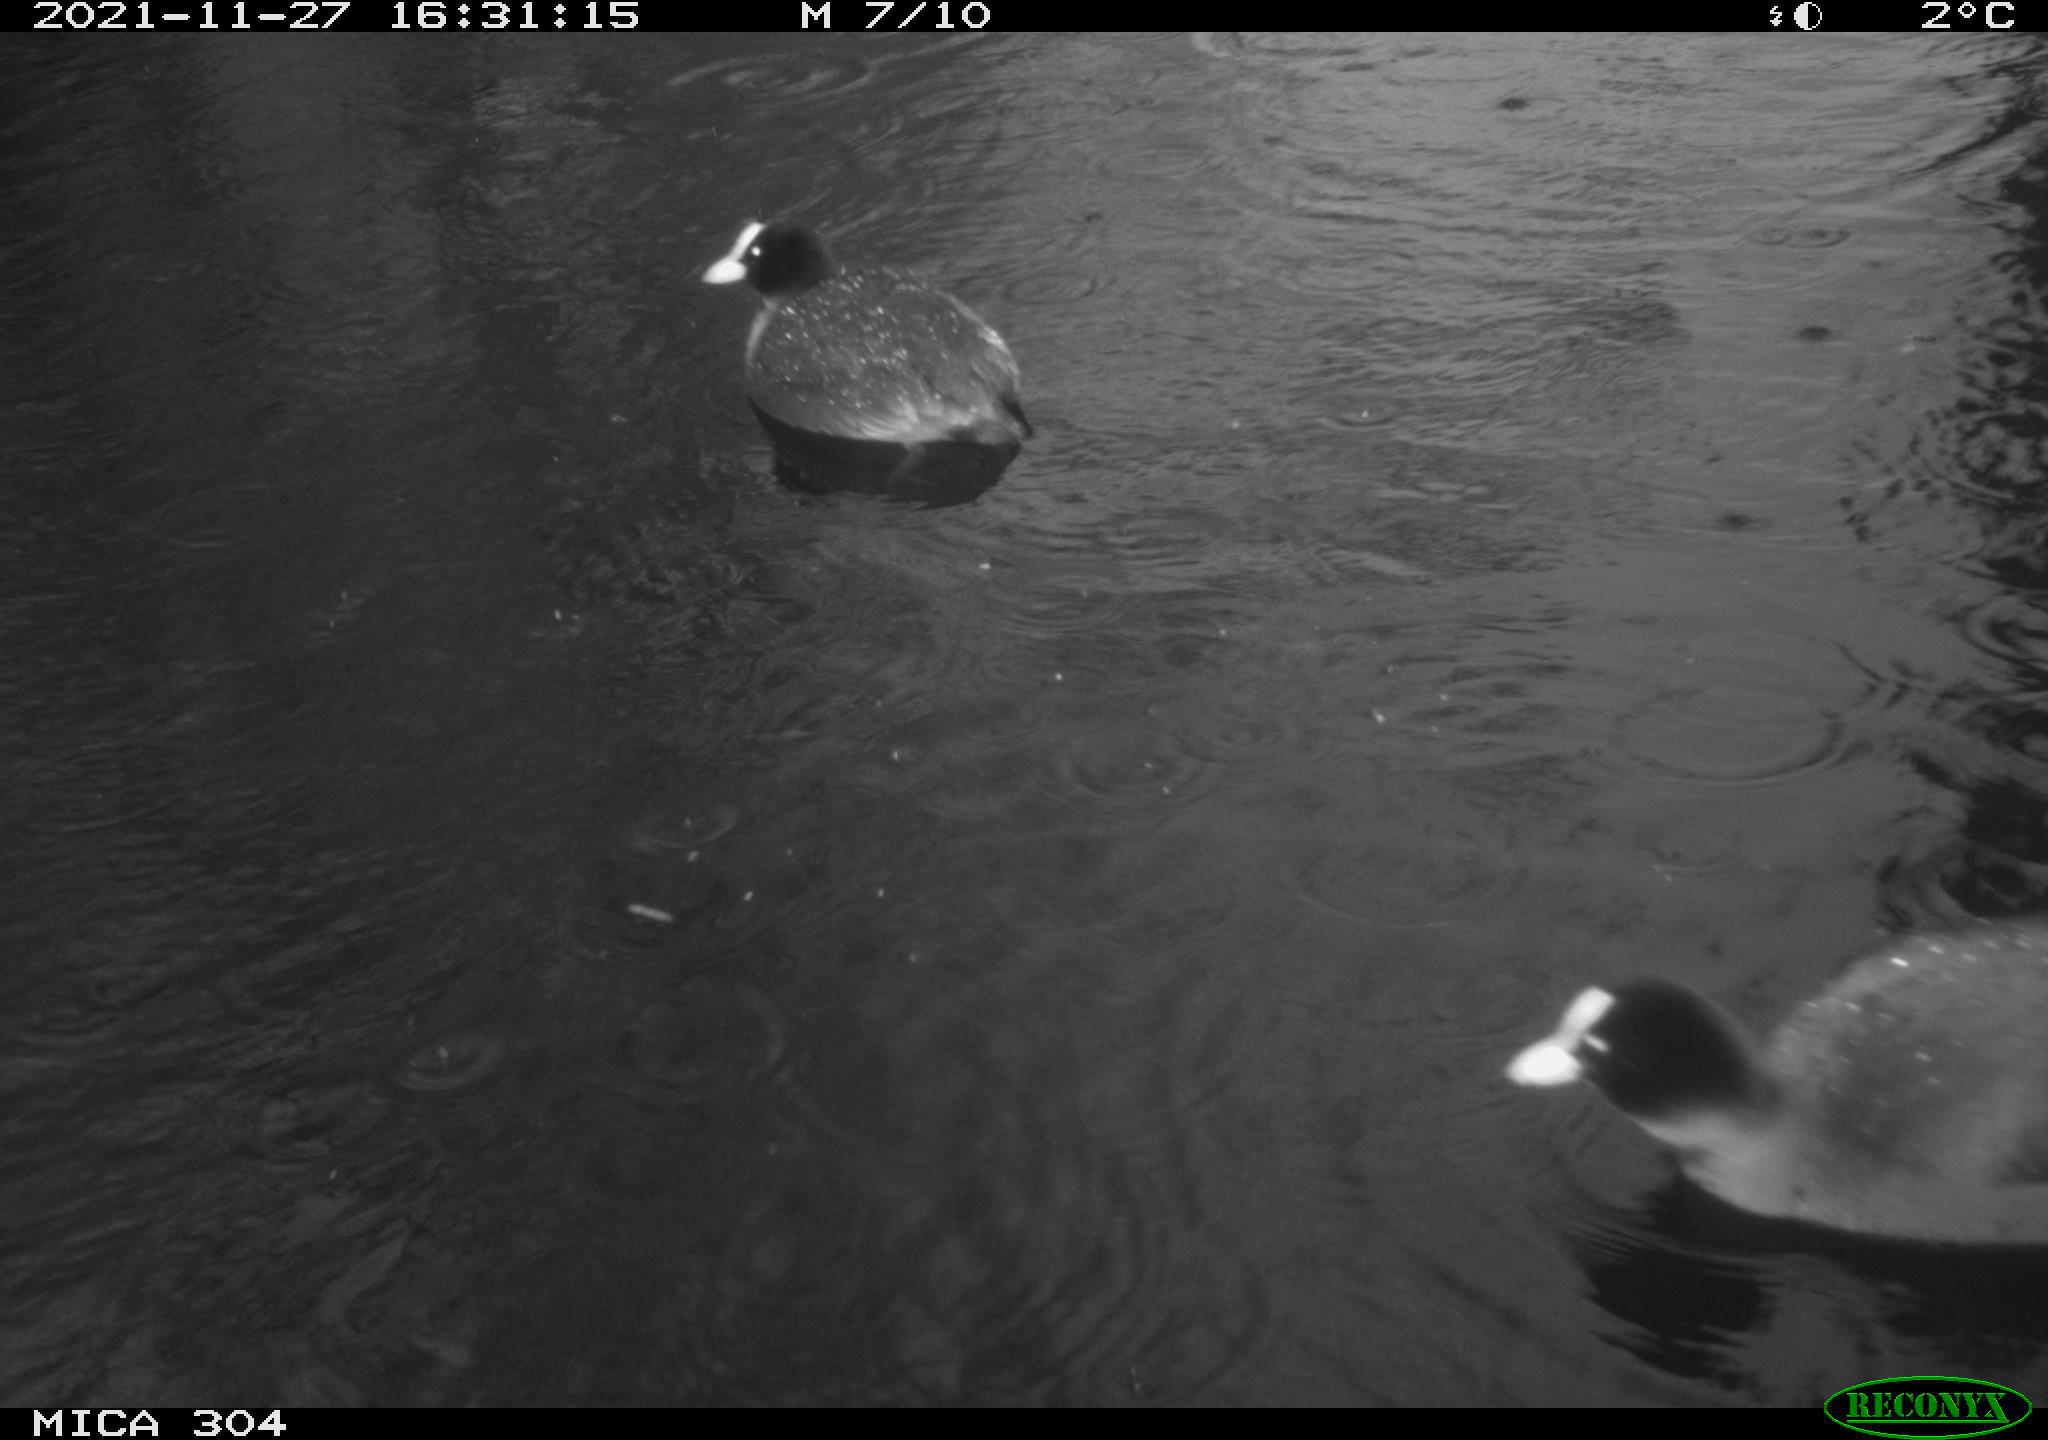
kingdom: Animalia
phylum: Chordata
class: Aves
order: Gruiformes
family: Rallidae
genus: Fulica
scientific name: Fulica atra
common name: Eurasian coot
